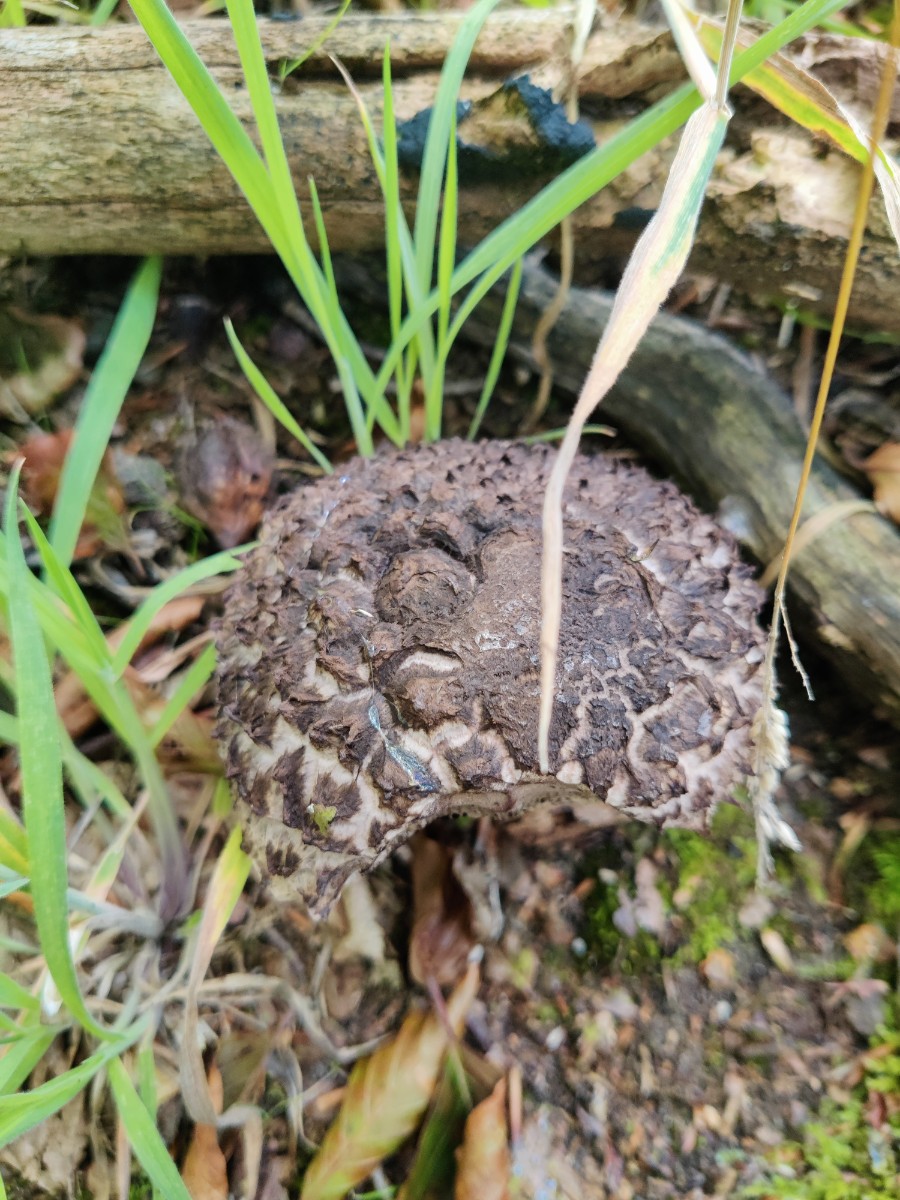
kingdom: Fungi
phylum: Basidiomycota
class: Agaricomycetes
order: Boletales
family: Boletaceae
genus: Strobilomyces
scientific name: Strobilomyces strobilaceus
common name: koglerørhat
